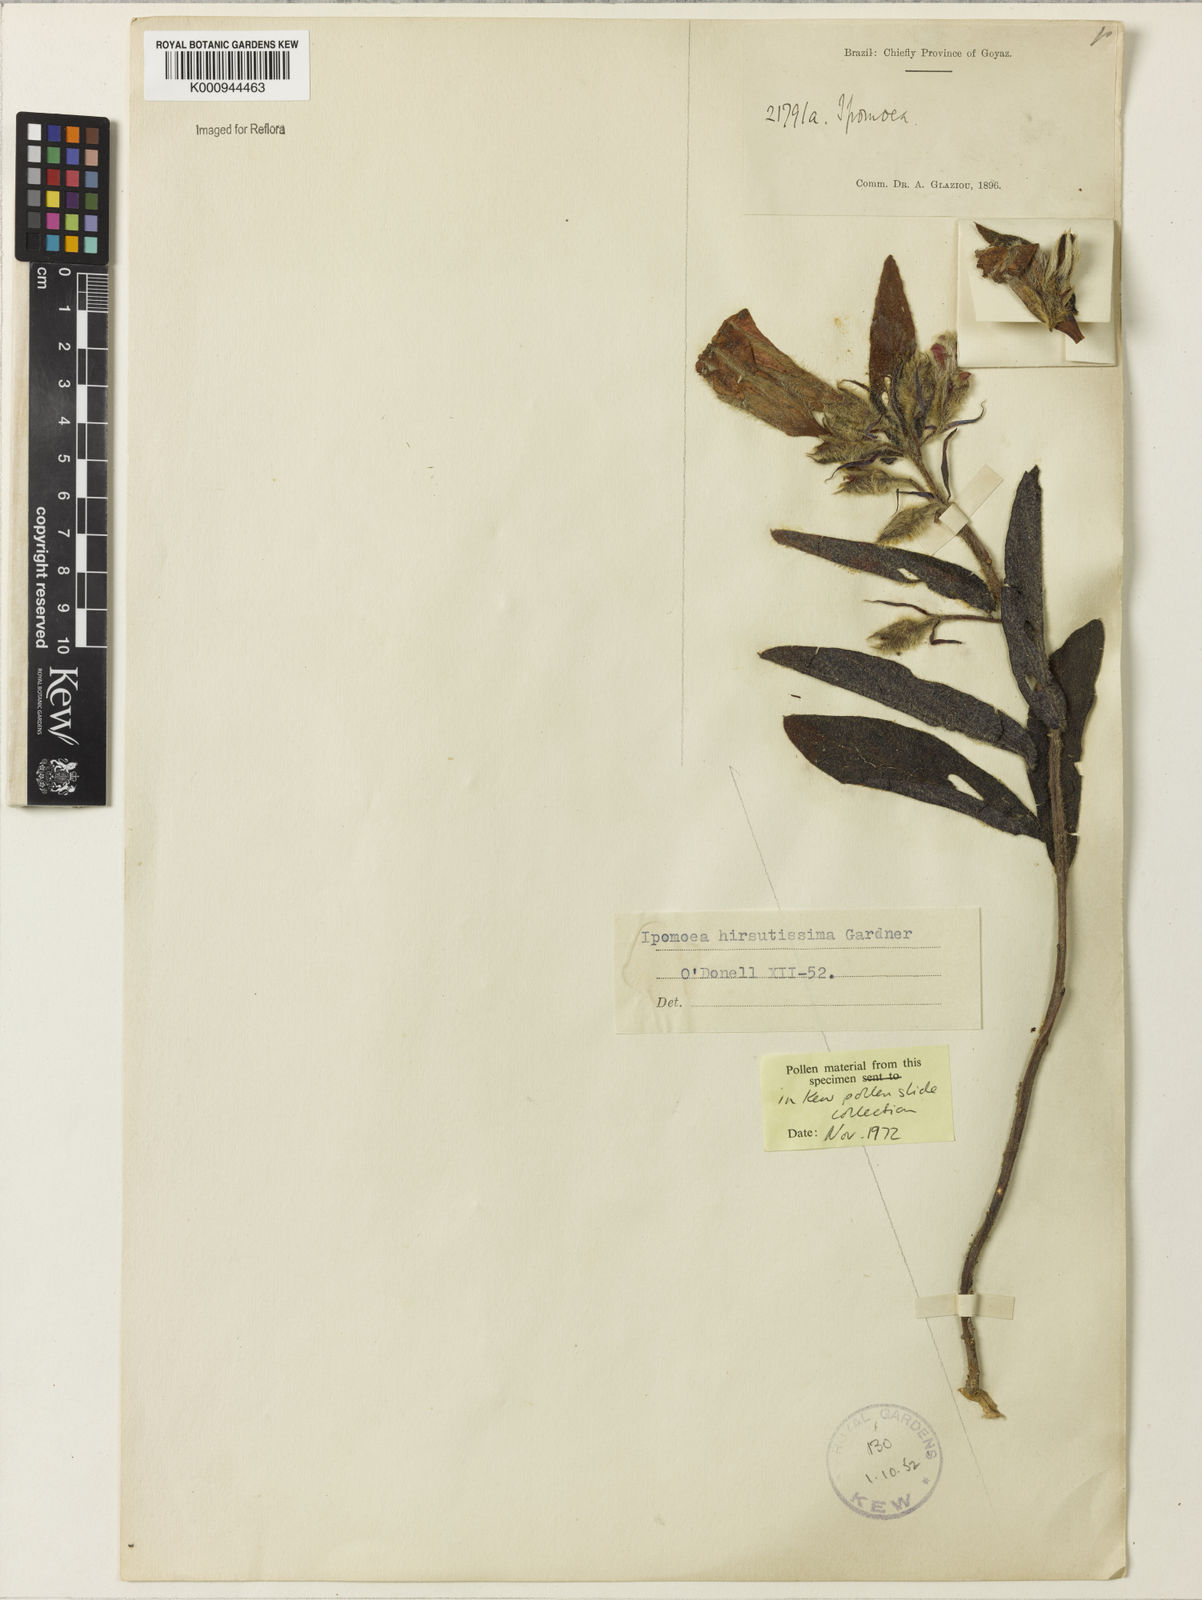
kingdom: Plantae
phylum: Tracheophyta
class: Magnoliopsida
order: Solanales
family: Convolvulaceae
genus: Ipomoea
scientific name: Ipomoea hirsutissima
